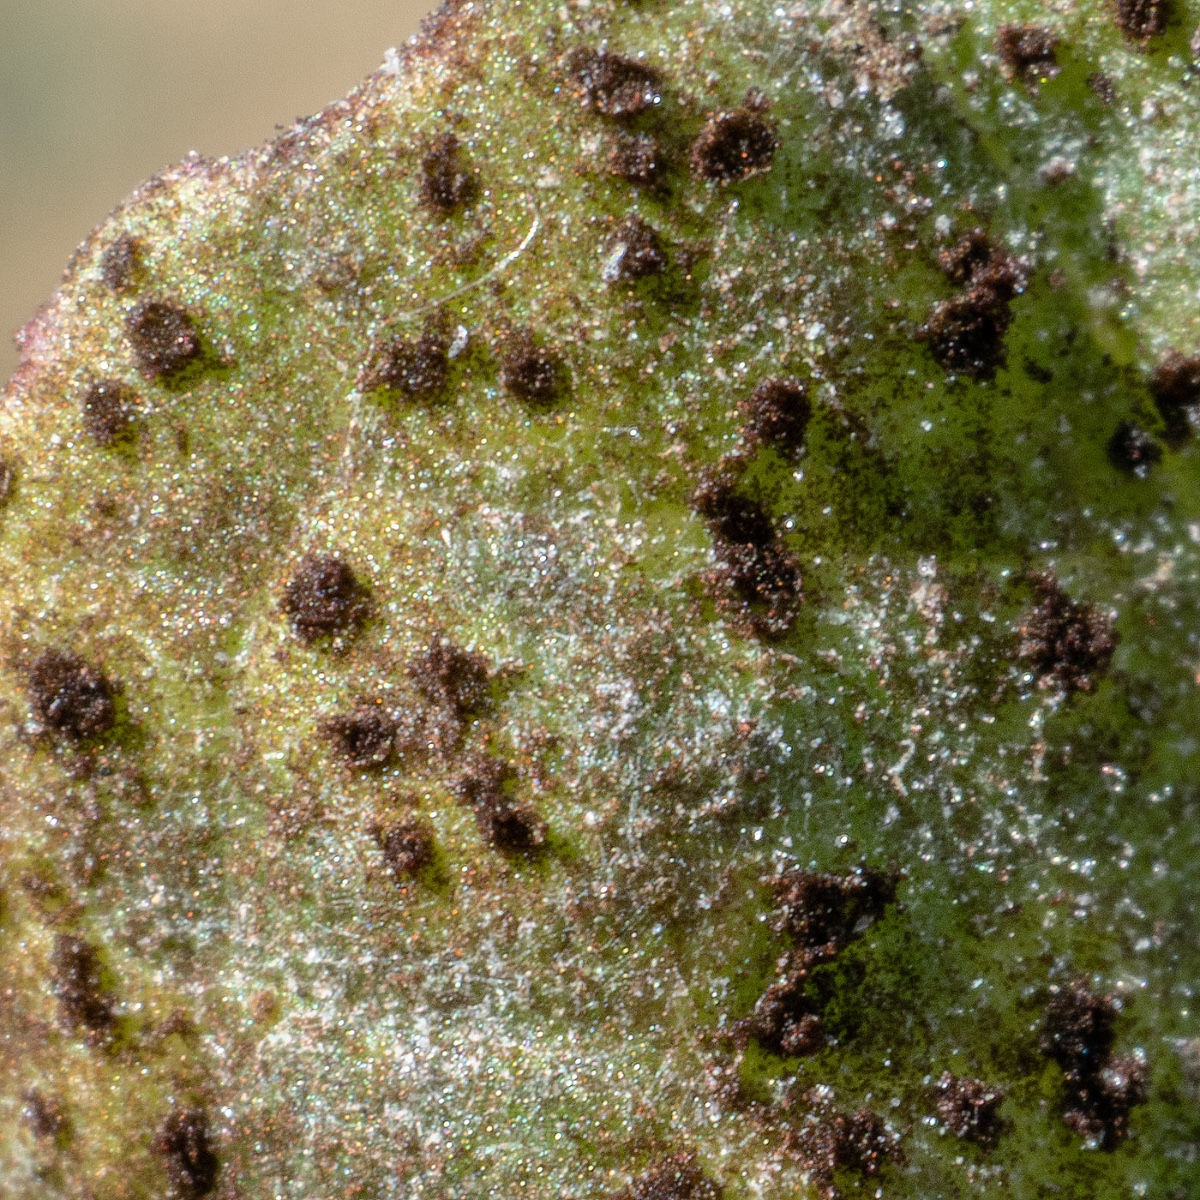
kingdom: Fungi
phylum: Basidiomycota
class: Pucciniomycetes
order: Pucciniales
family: Pucciniaceae
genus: Puccinia
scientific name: Puccinia variabilis
